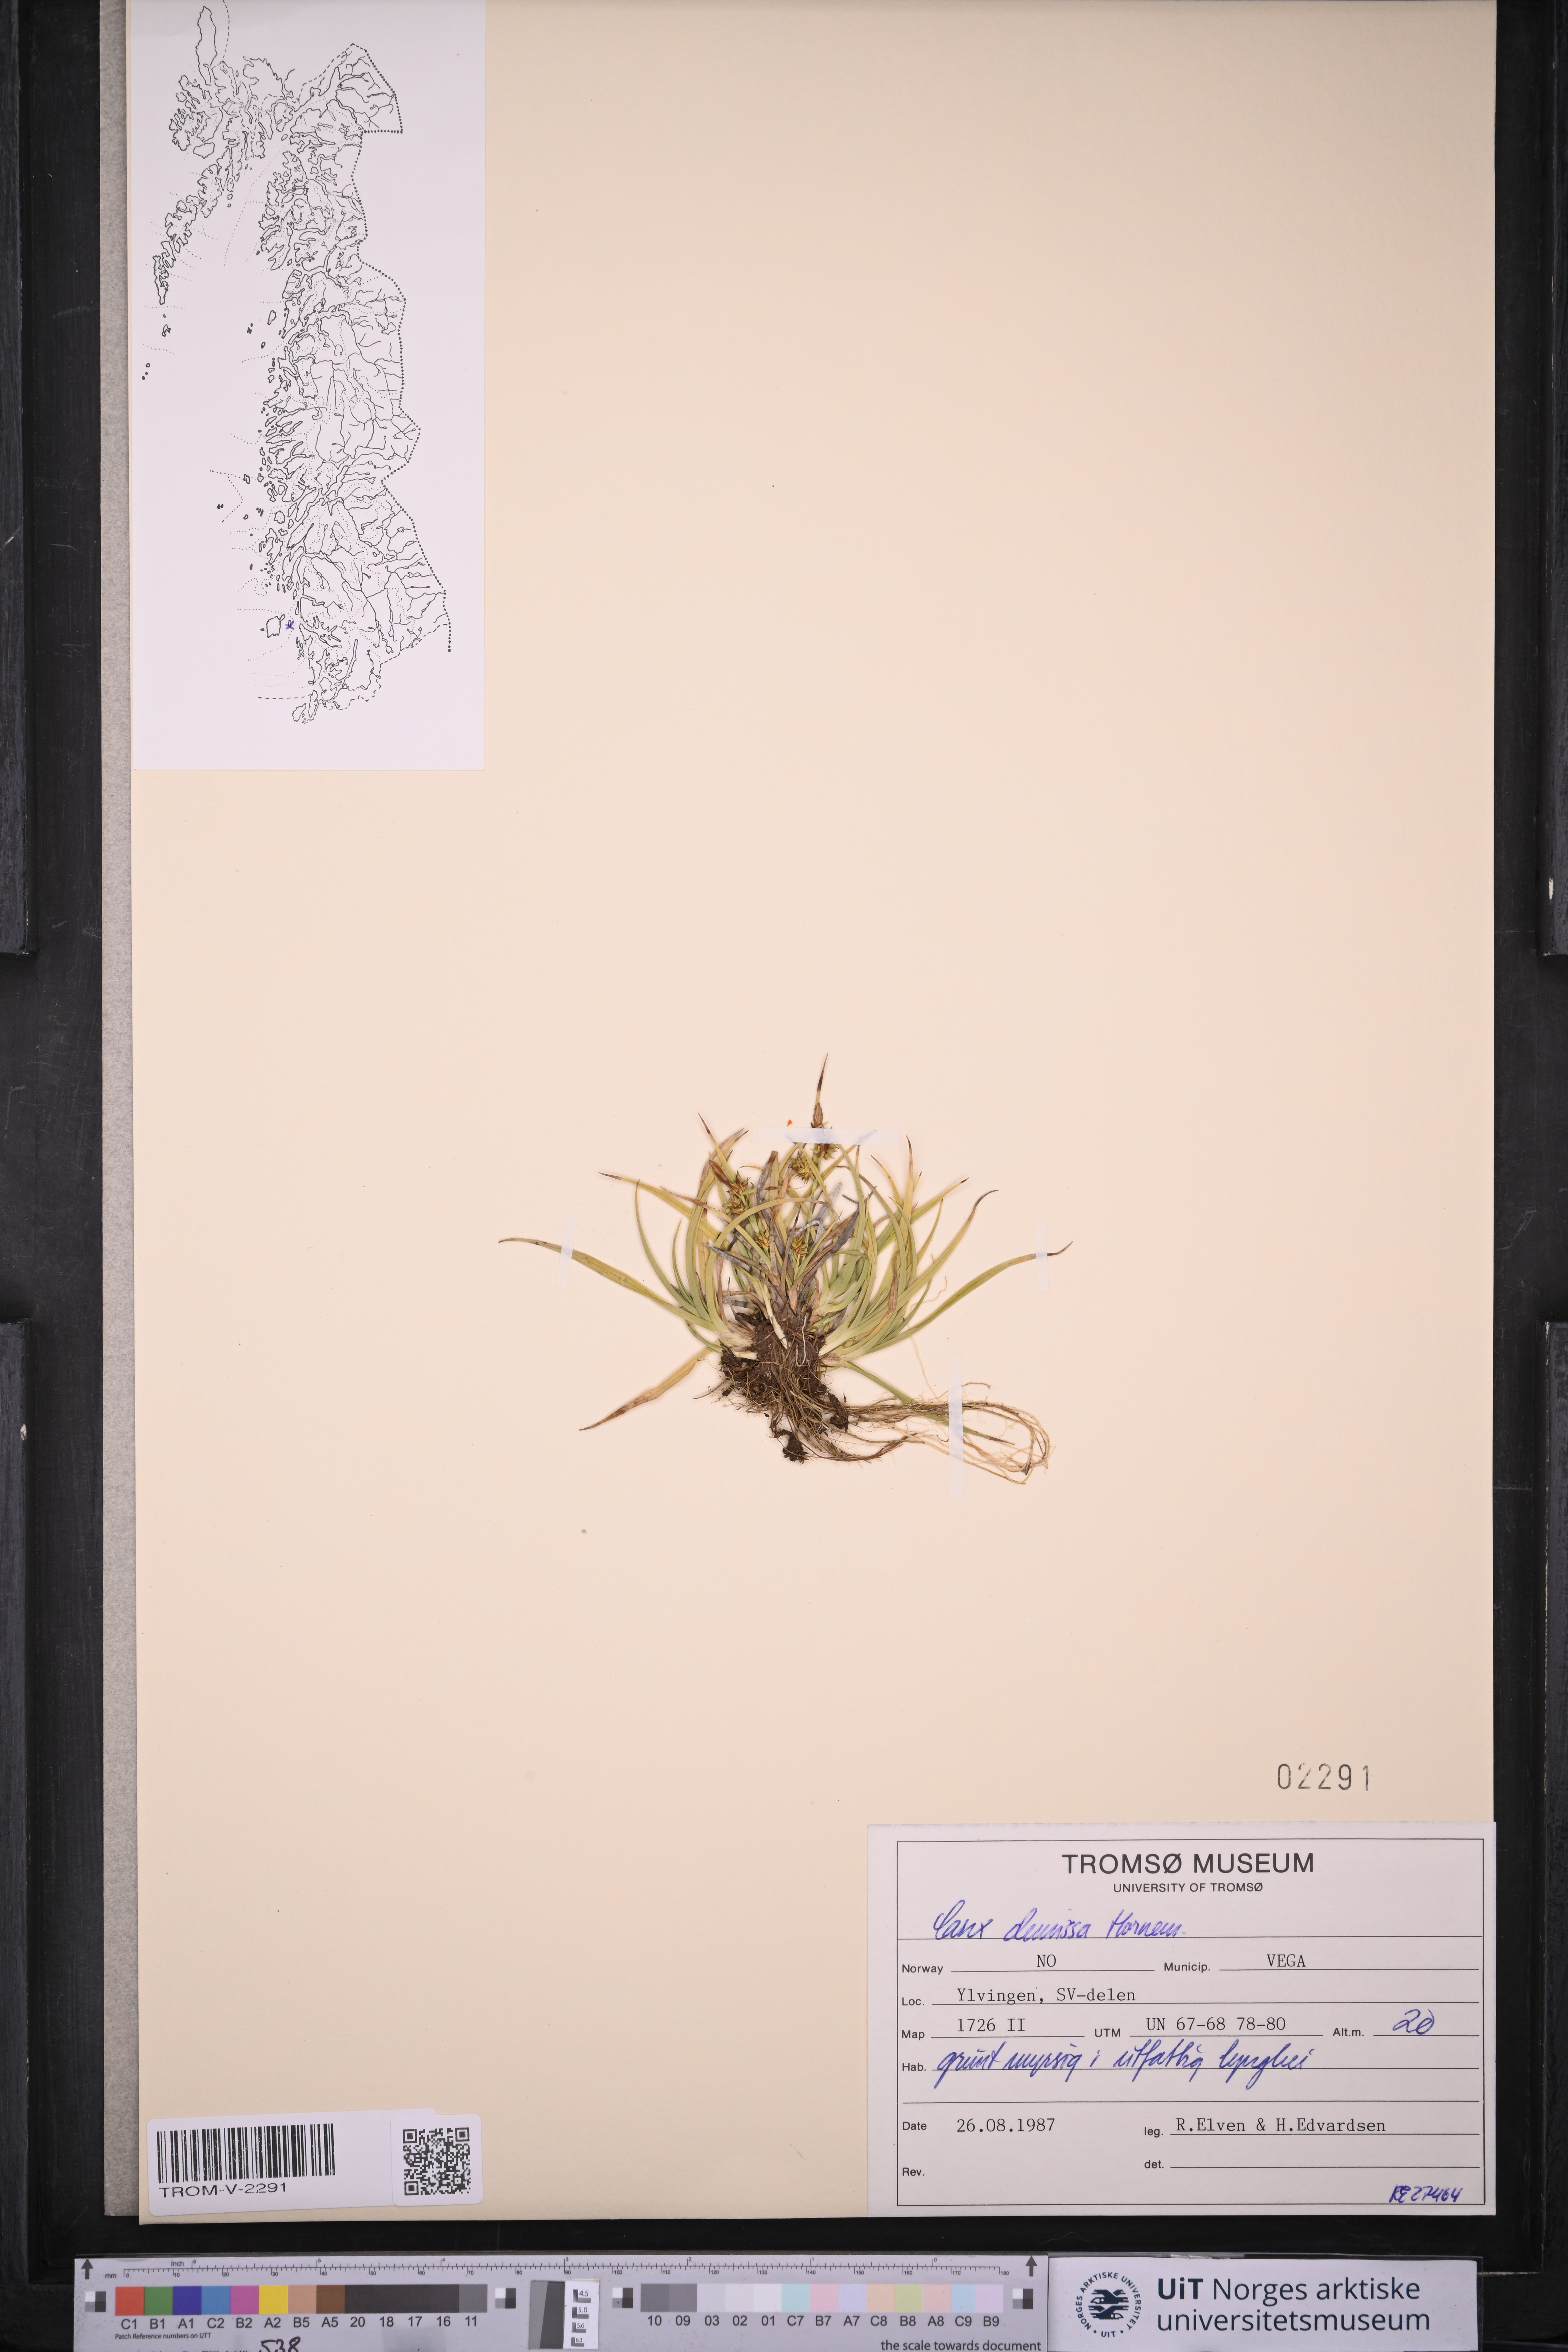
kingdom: Plantae
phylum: Tracheophyta
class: Liliopsida
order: Poales
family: Cyperaceae
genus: Carex
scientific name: Carex demissa
